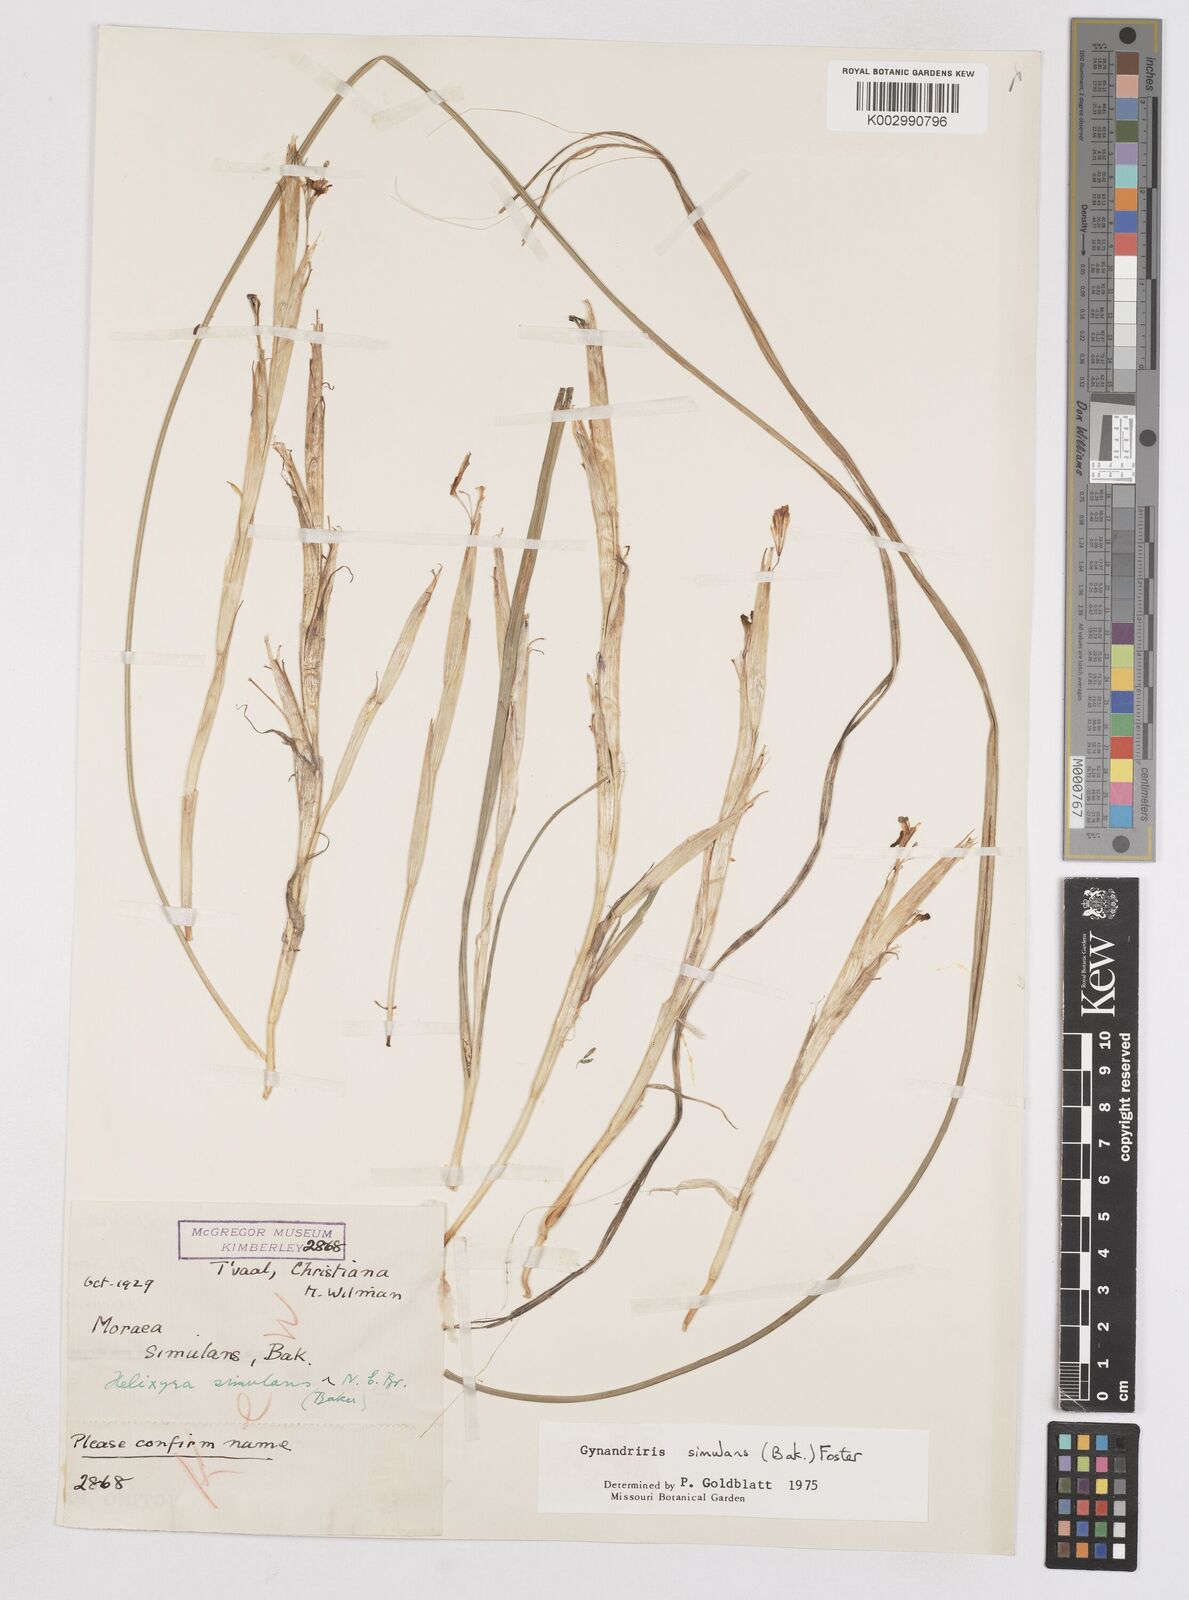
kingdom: Plantae
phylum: Tracheophyta
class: Liliopsida
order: Asparagales
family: Iridaceae
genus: Moraea
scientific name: Moraea simulans
